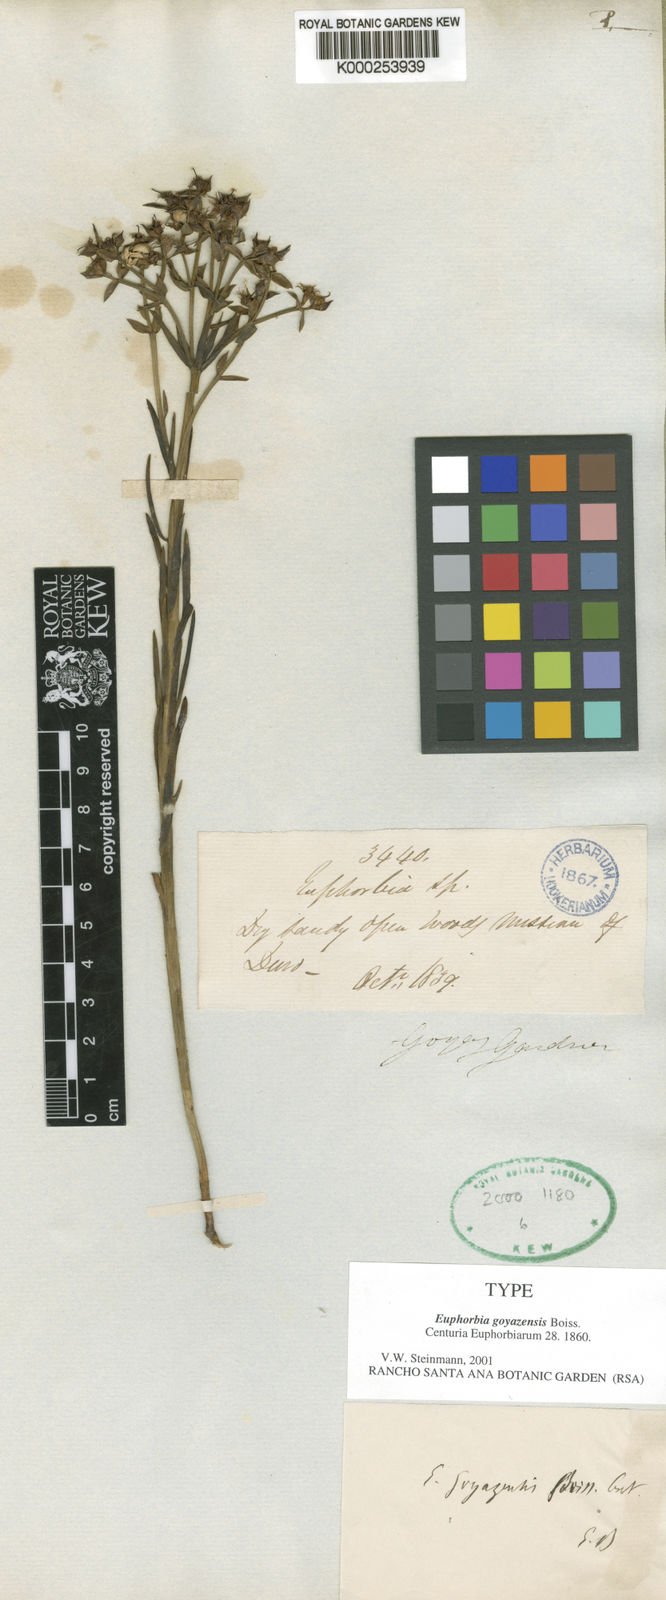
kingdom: Plantae
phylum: Tracheophyta
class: Magnoliopsida
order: Malpighiales
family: Euphorbiaceae
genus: Euphorbia
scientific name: Euphorbia goyazensis
